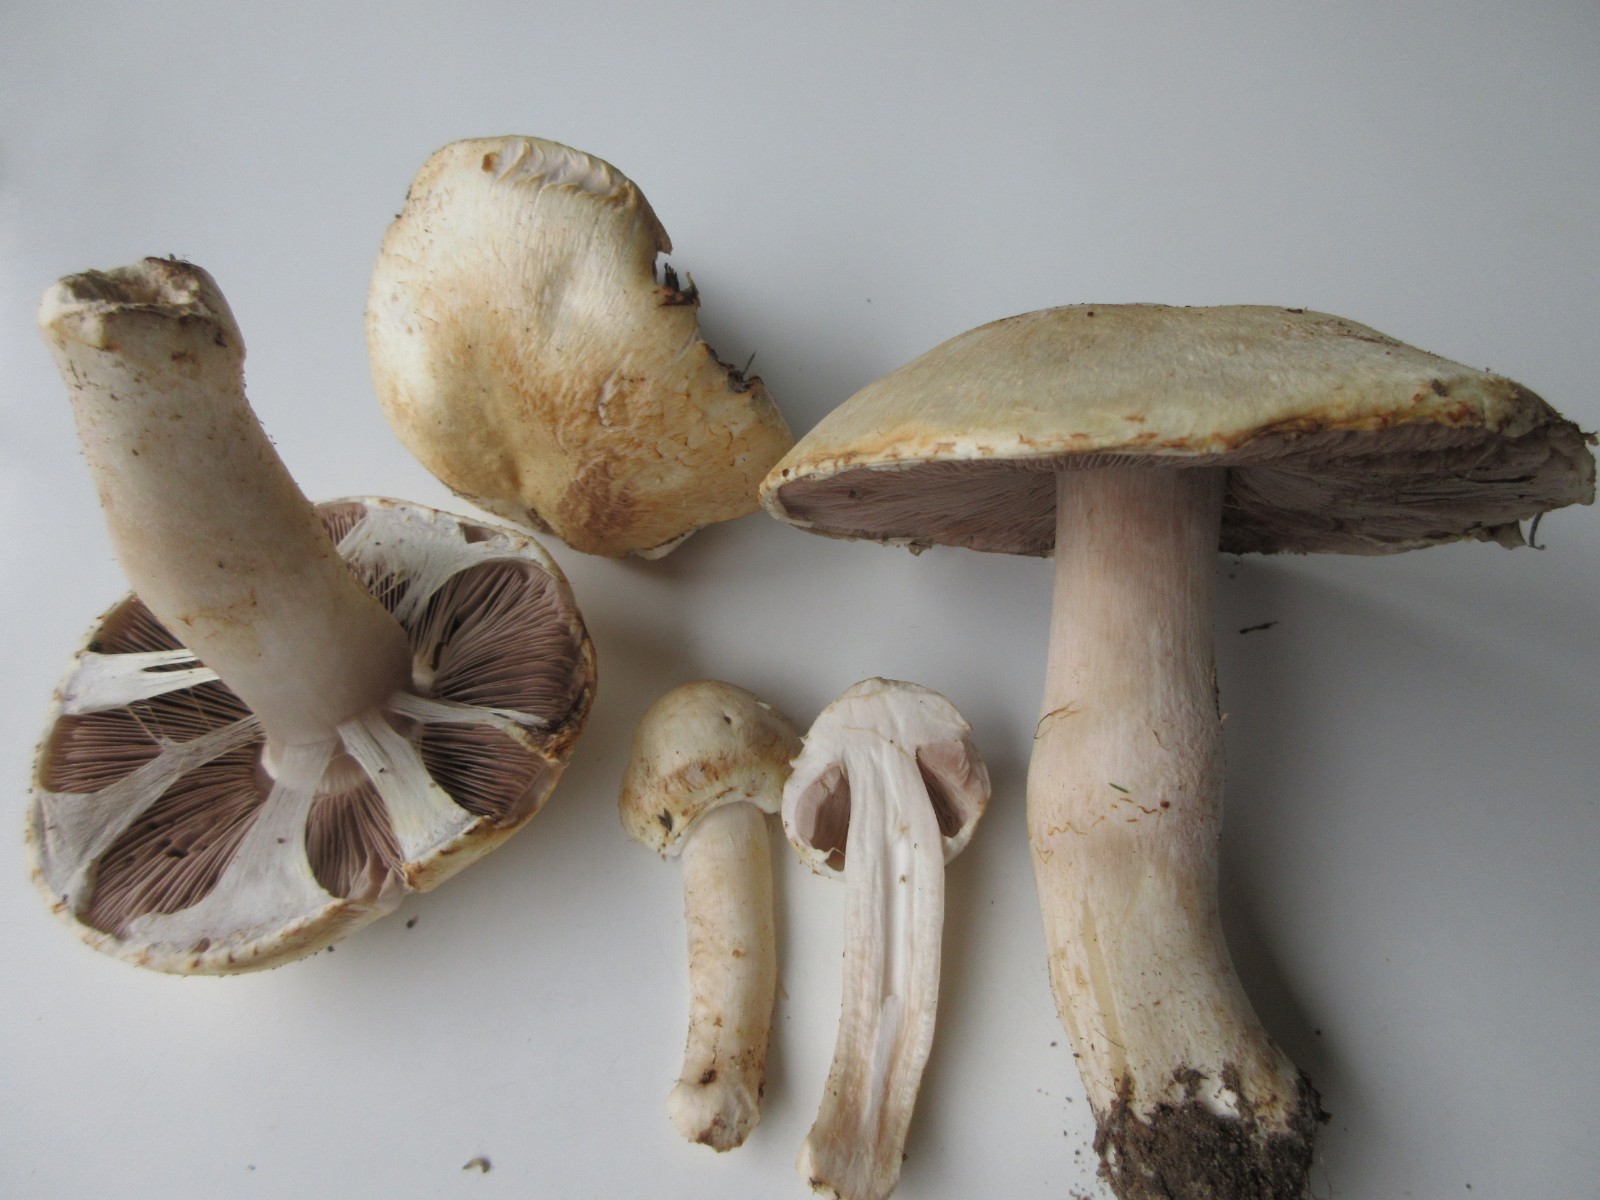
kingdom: Fungi
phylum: Basidiomycota
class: Agaricomycetes
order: Agaricales
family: Agaricaceae
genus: Agaricus
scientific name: Agaricus
